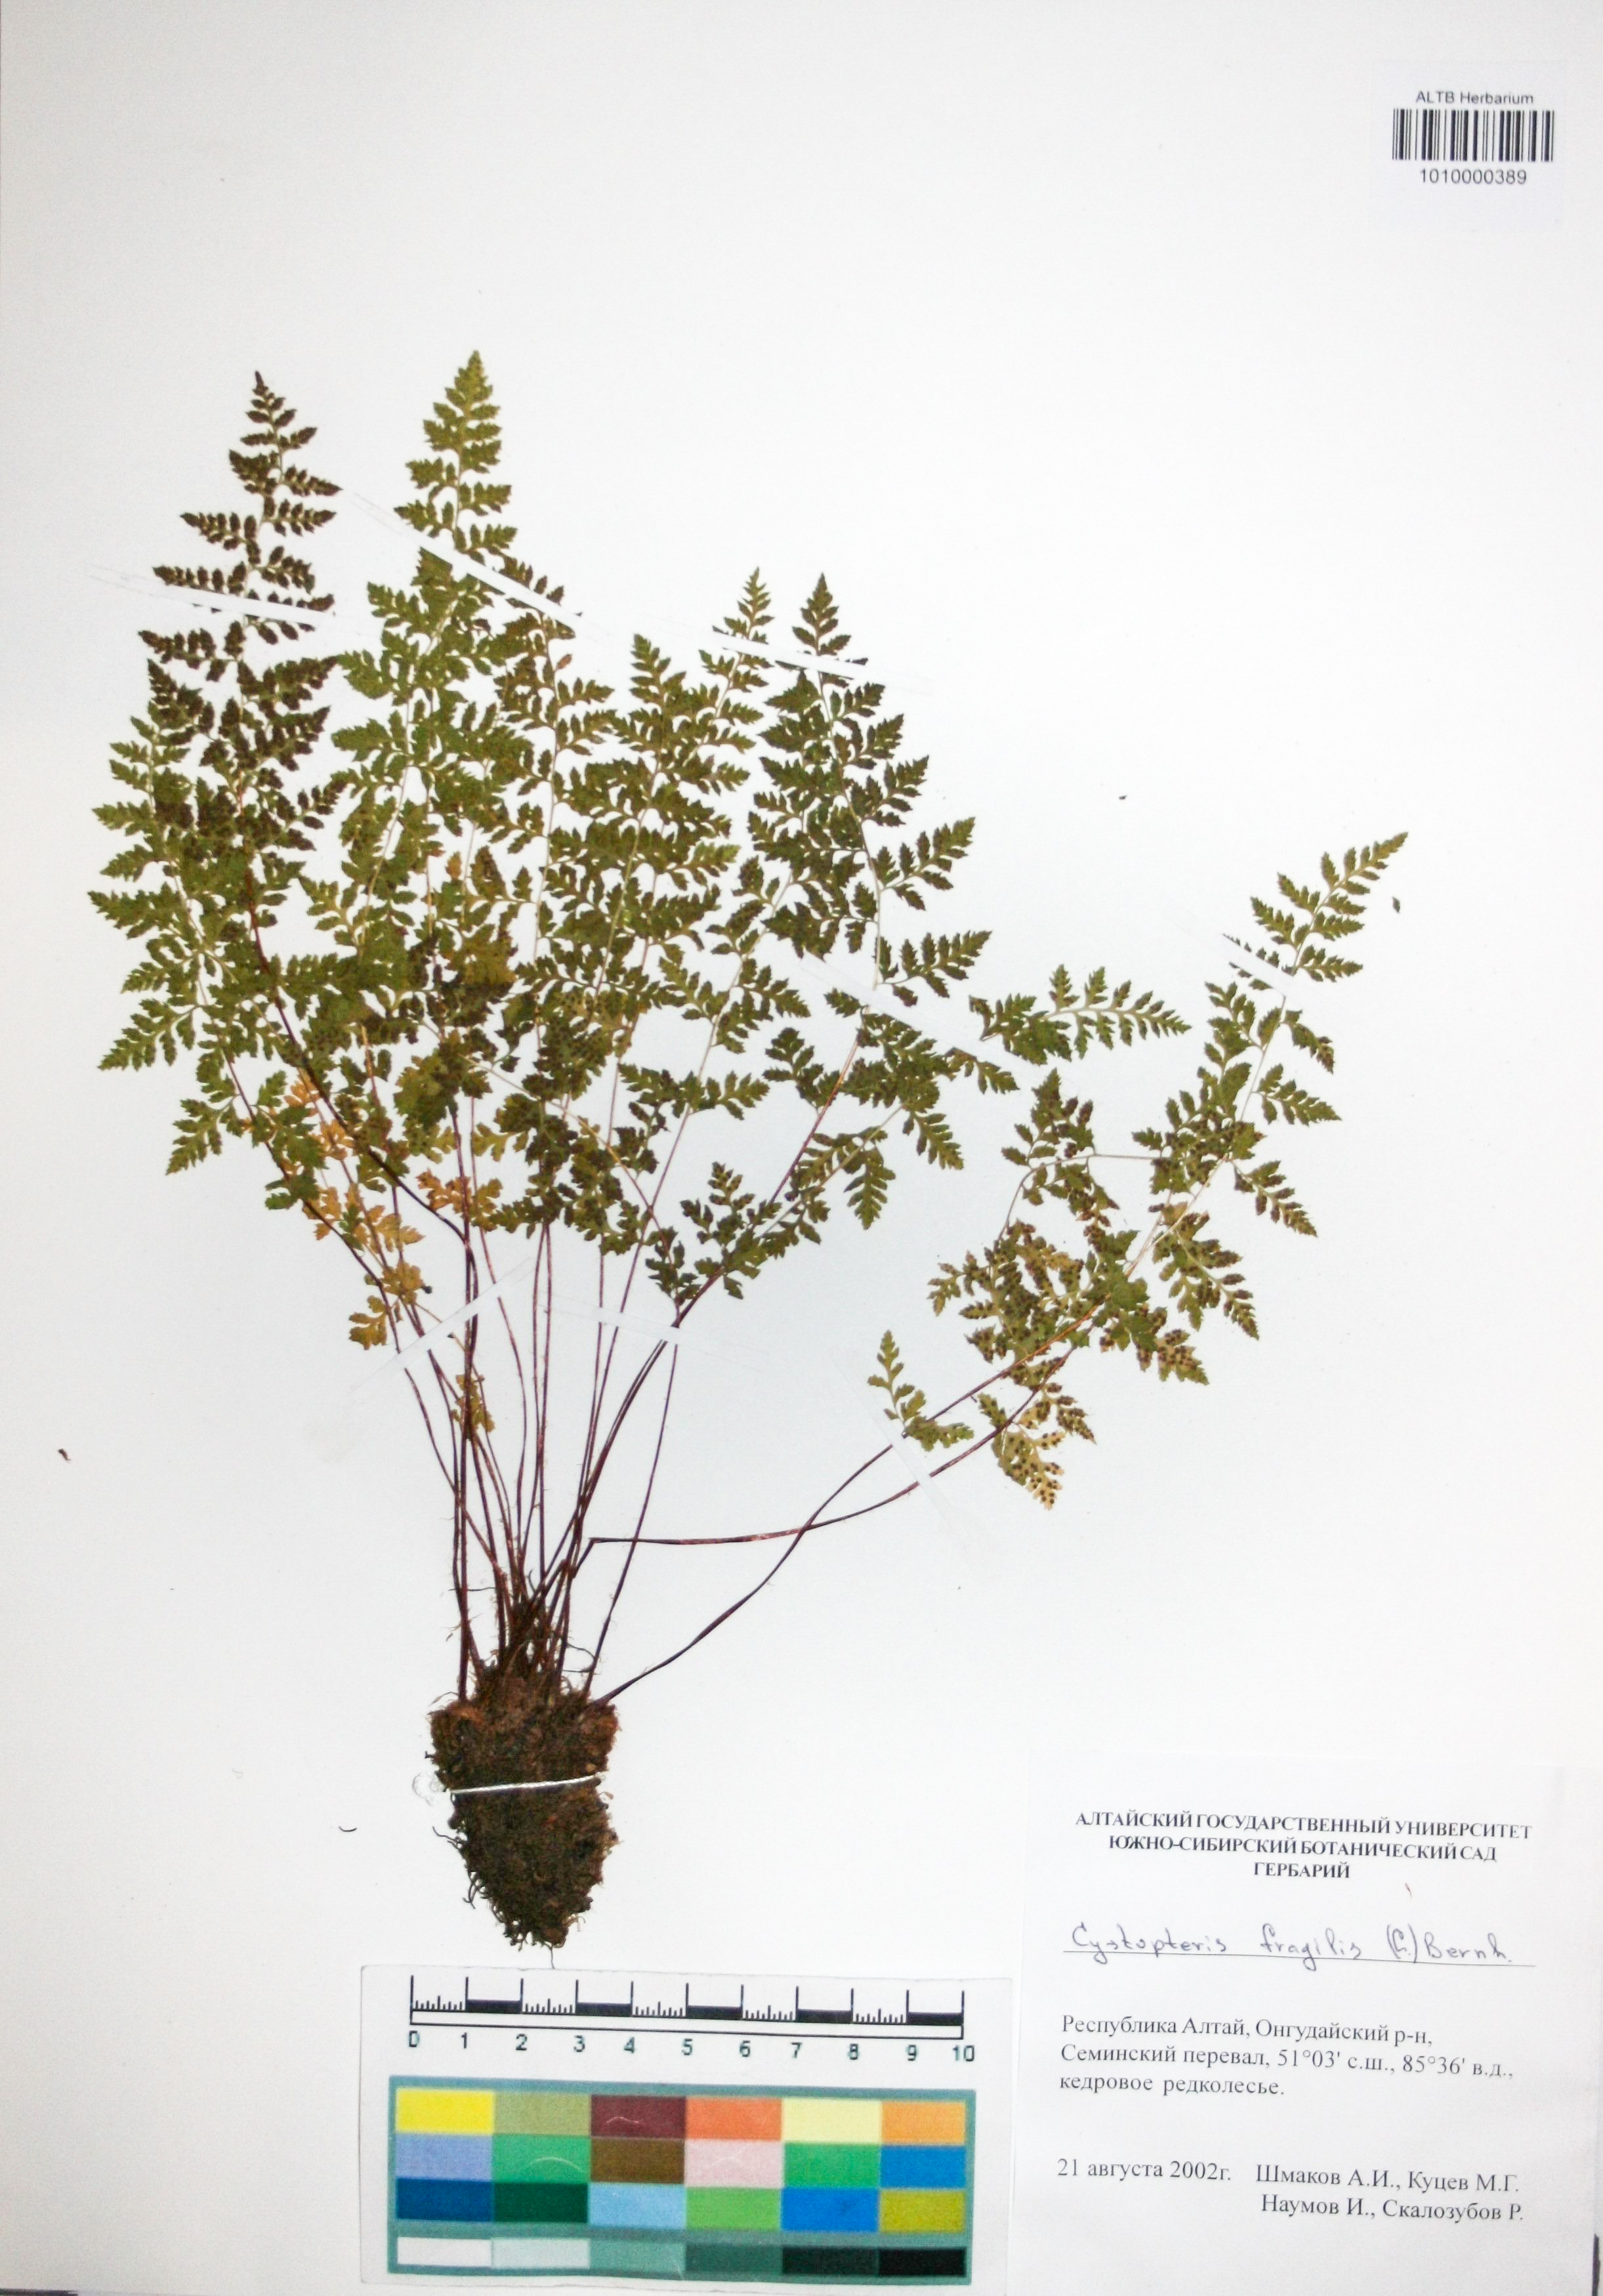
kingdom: Plantae
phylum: Tracheophyta
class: Polypodiopsida
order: Polypodiales
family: Cystopteridaceae
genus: Cystopteris
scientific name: Cystopteris fragilis
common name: Brittle bladder fern
